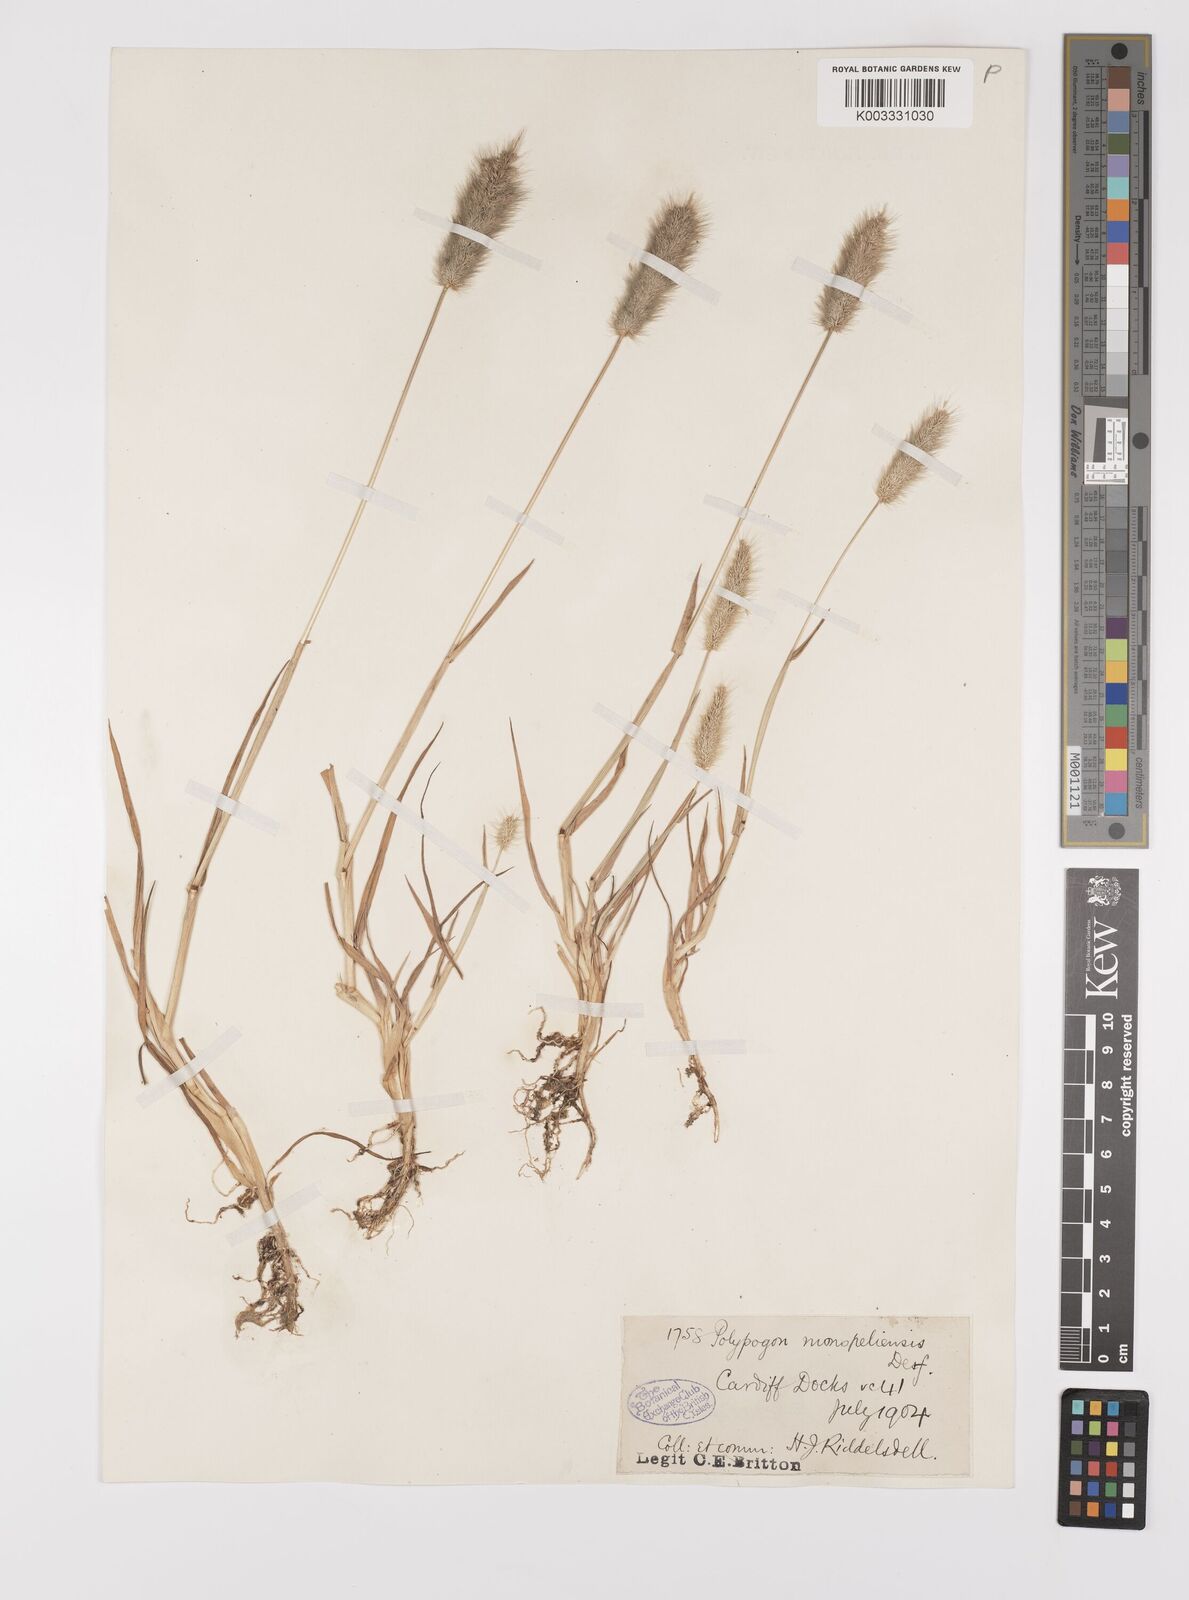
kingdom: Plantae
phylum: Tracheophyta
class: Liliopsida
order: Poales
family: Poaceae
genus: Polypogon
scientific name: Polypogon monspeliensis
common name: Annual rabbitsfoot grass
